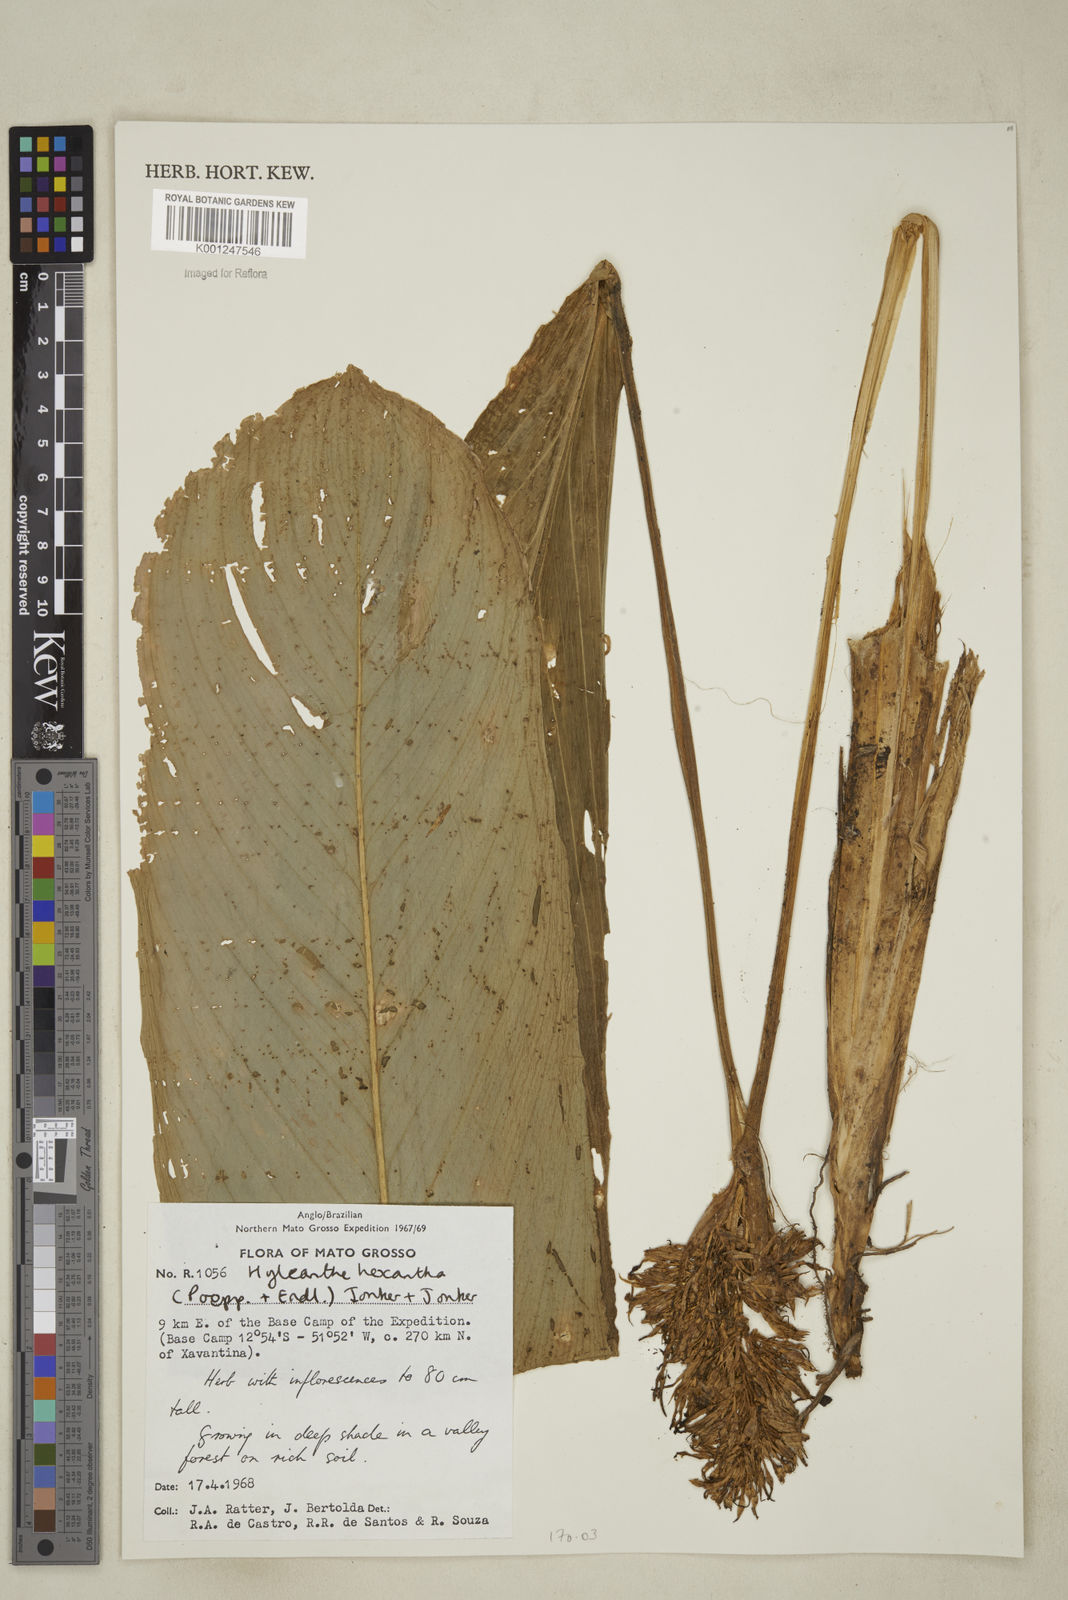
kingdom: Plantae
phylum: Tracheophyta
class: Liliopsida
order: Zingiberales
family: Marantaceae
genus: Hylaeanthe
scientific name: Hylaeanthe hexantha
